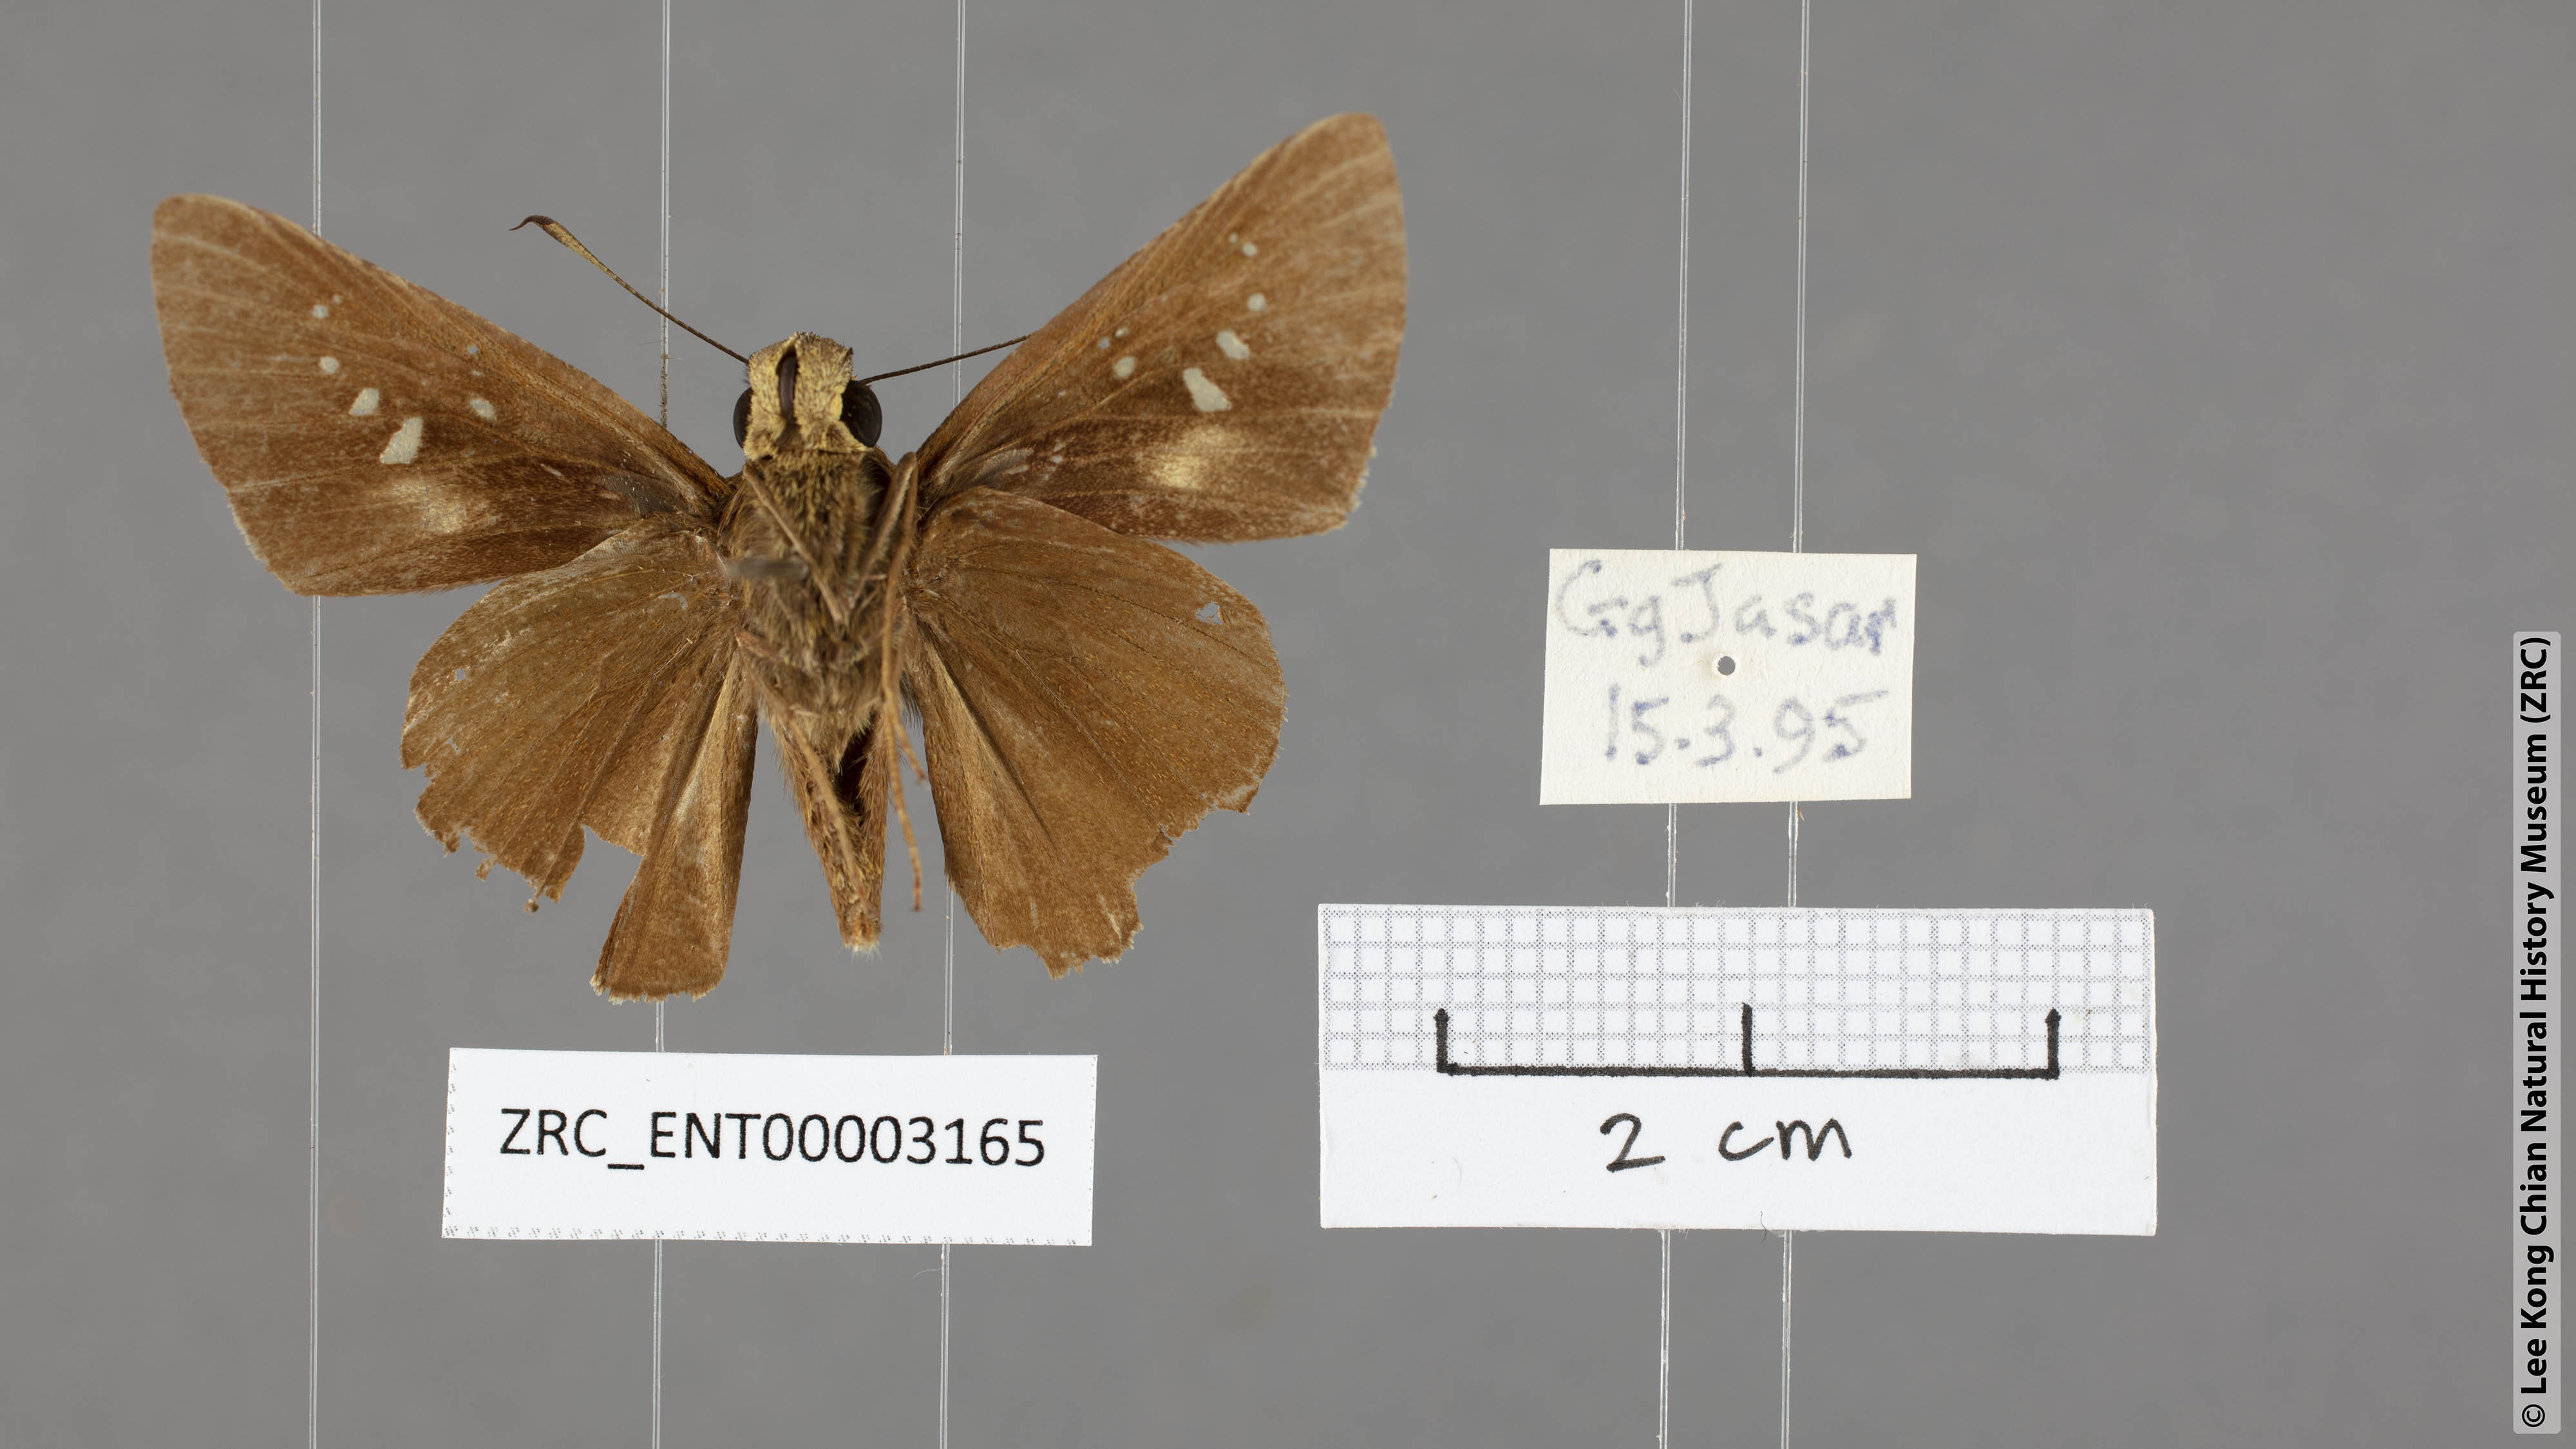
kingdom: Animalia
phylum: Arthropoda
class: Insecta
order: Lepidoptera
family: Hesperiidae
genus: Caltoris
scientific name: Caltoris sirius
